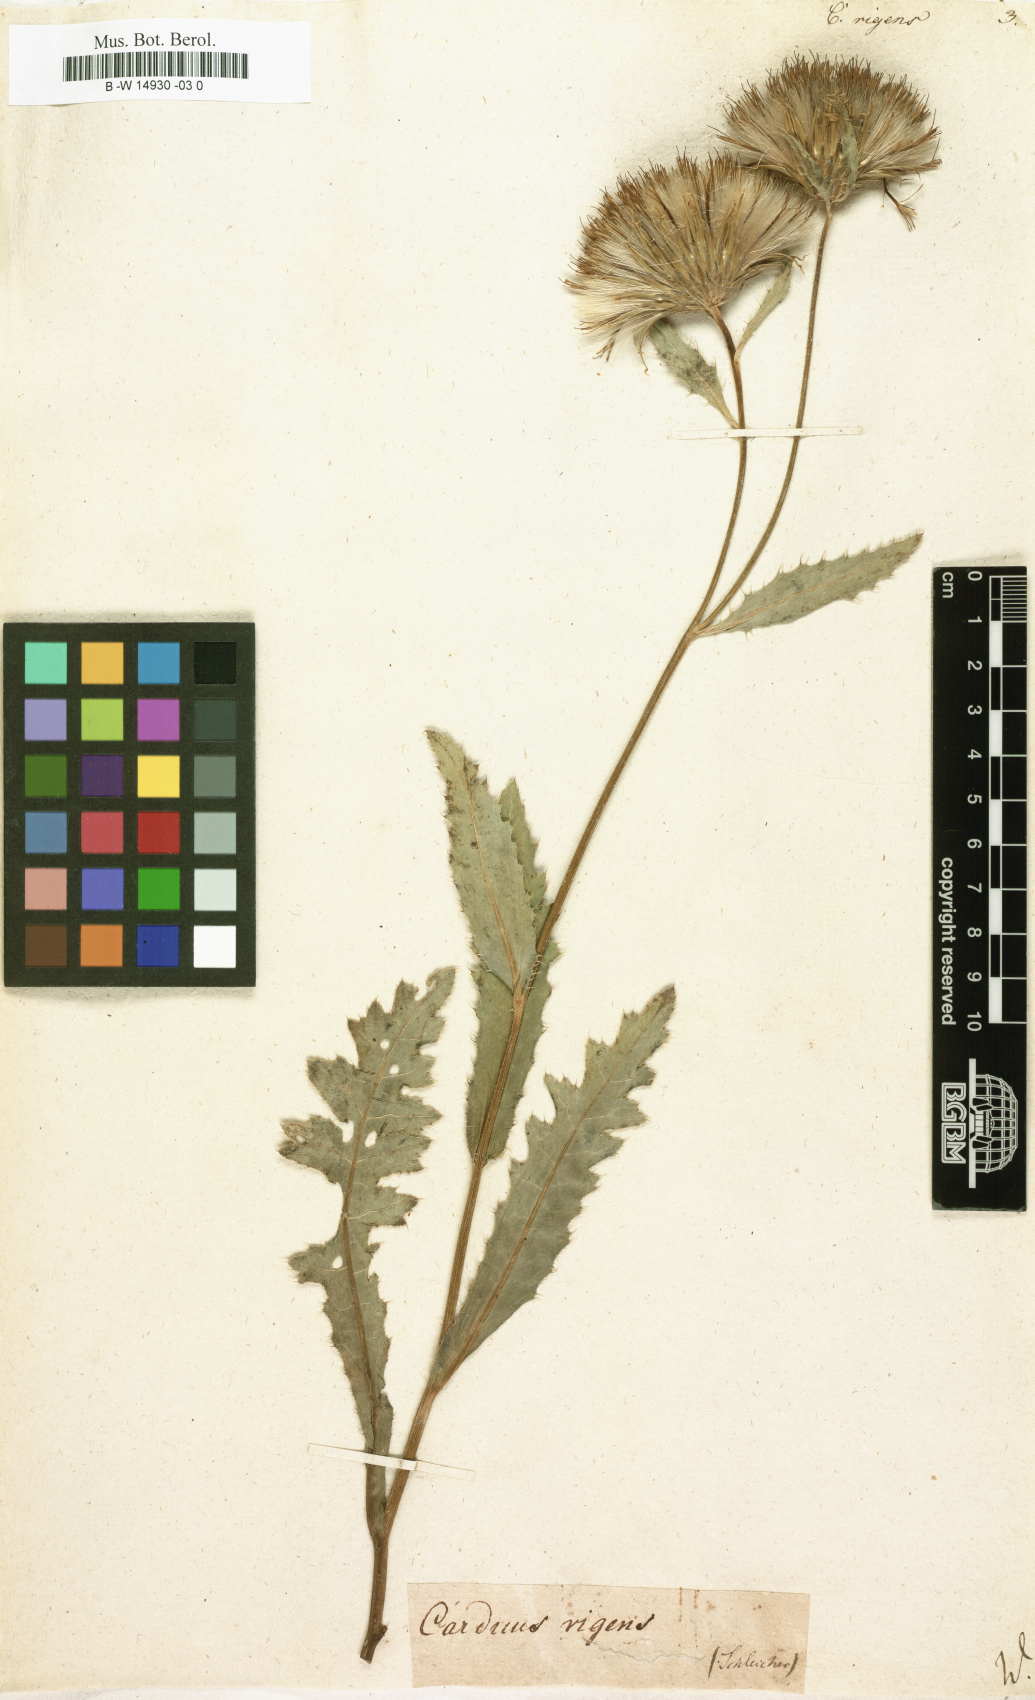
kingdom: Plantae
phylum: Tracheophyta
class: Magnoliopsida
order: Asterales
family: Asteraceae
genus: Cirsium
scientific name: Cirsium
